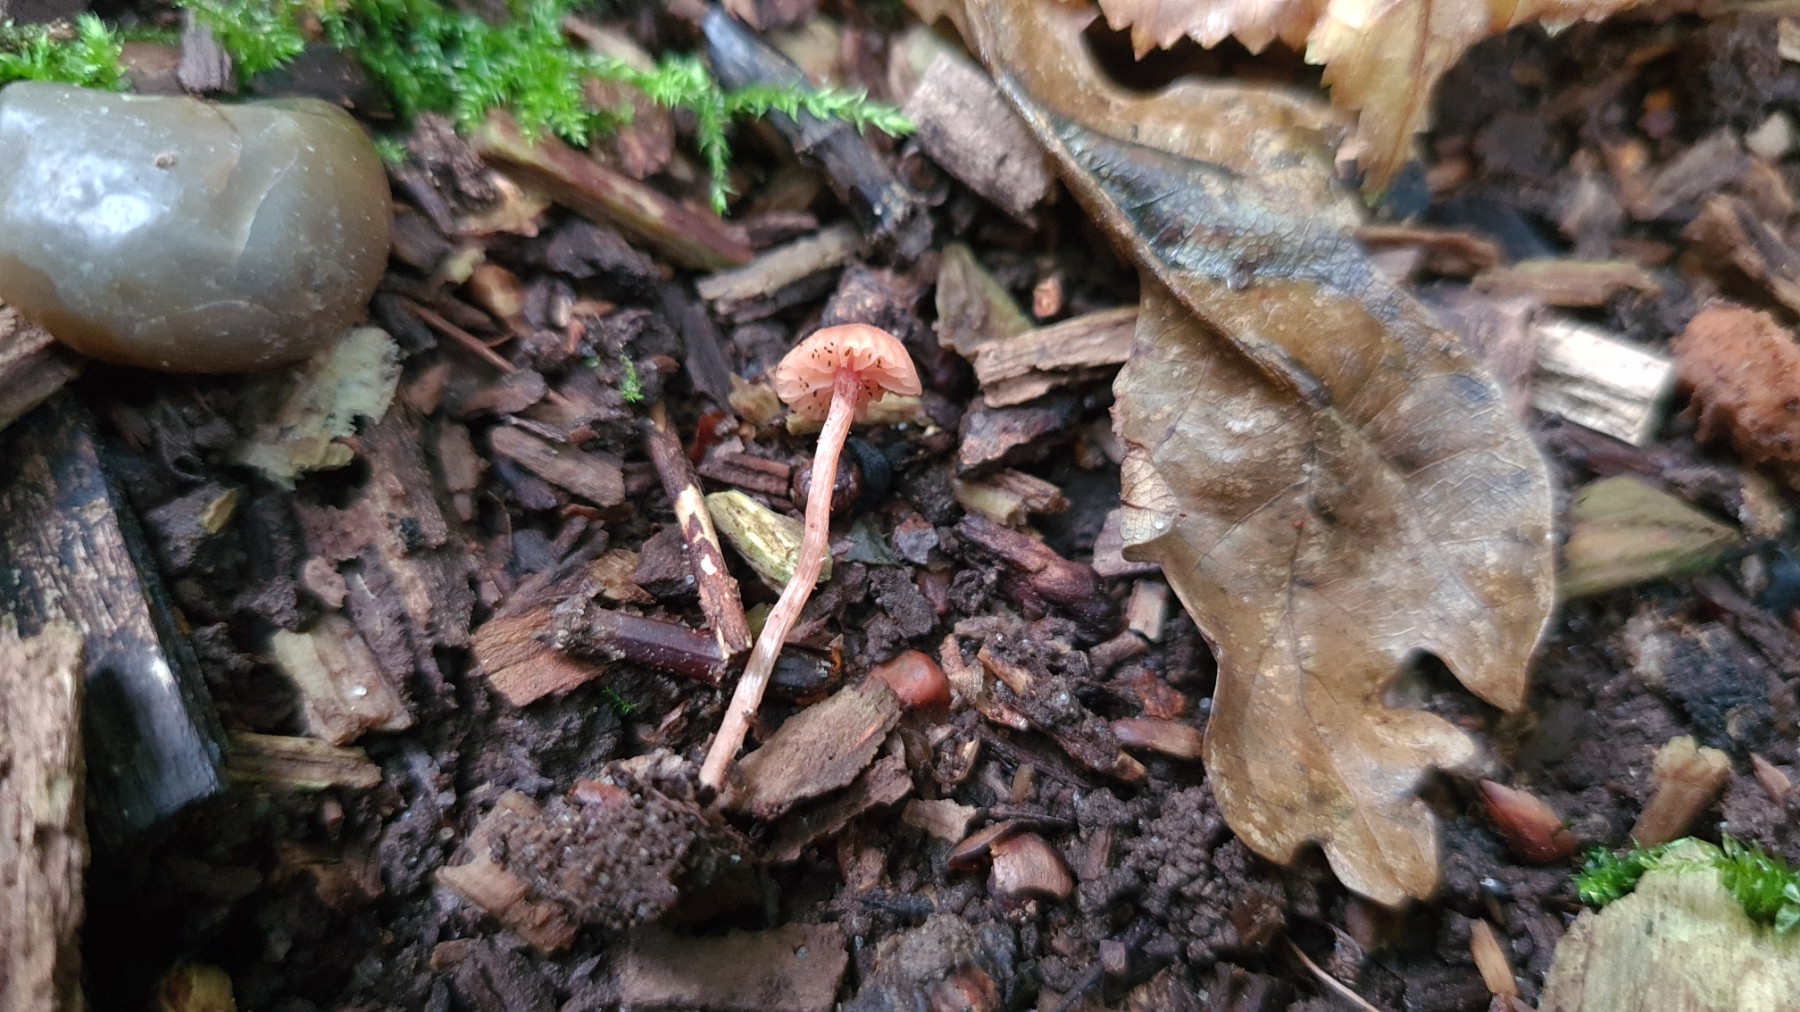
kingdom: Fungi
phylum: Basidiomycota
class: Agaricomycetes
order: Agaricales
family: Hydnangiaceae
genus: Laccaria
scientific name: Laccaria laccata
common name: rød ametysthat
